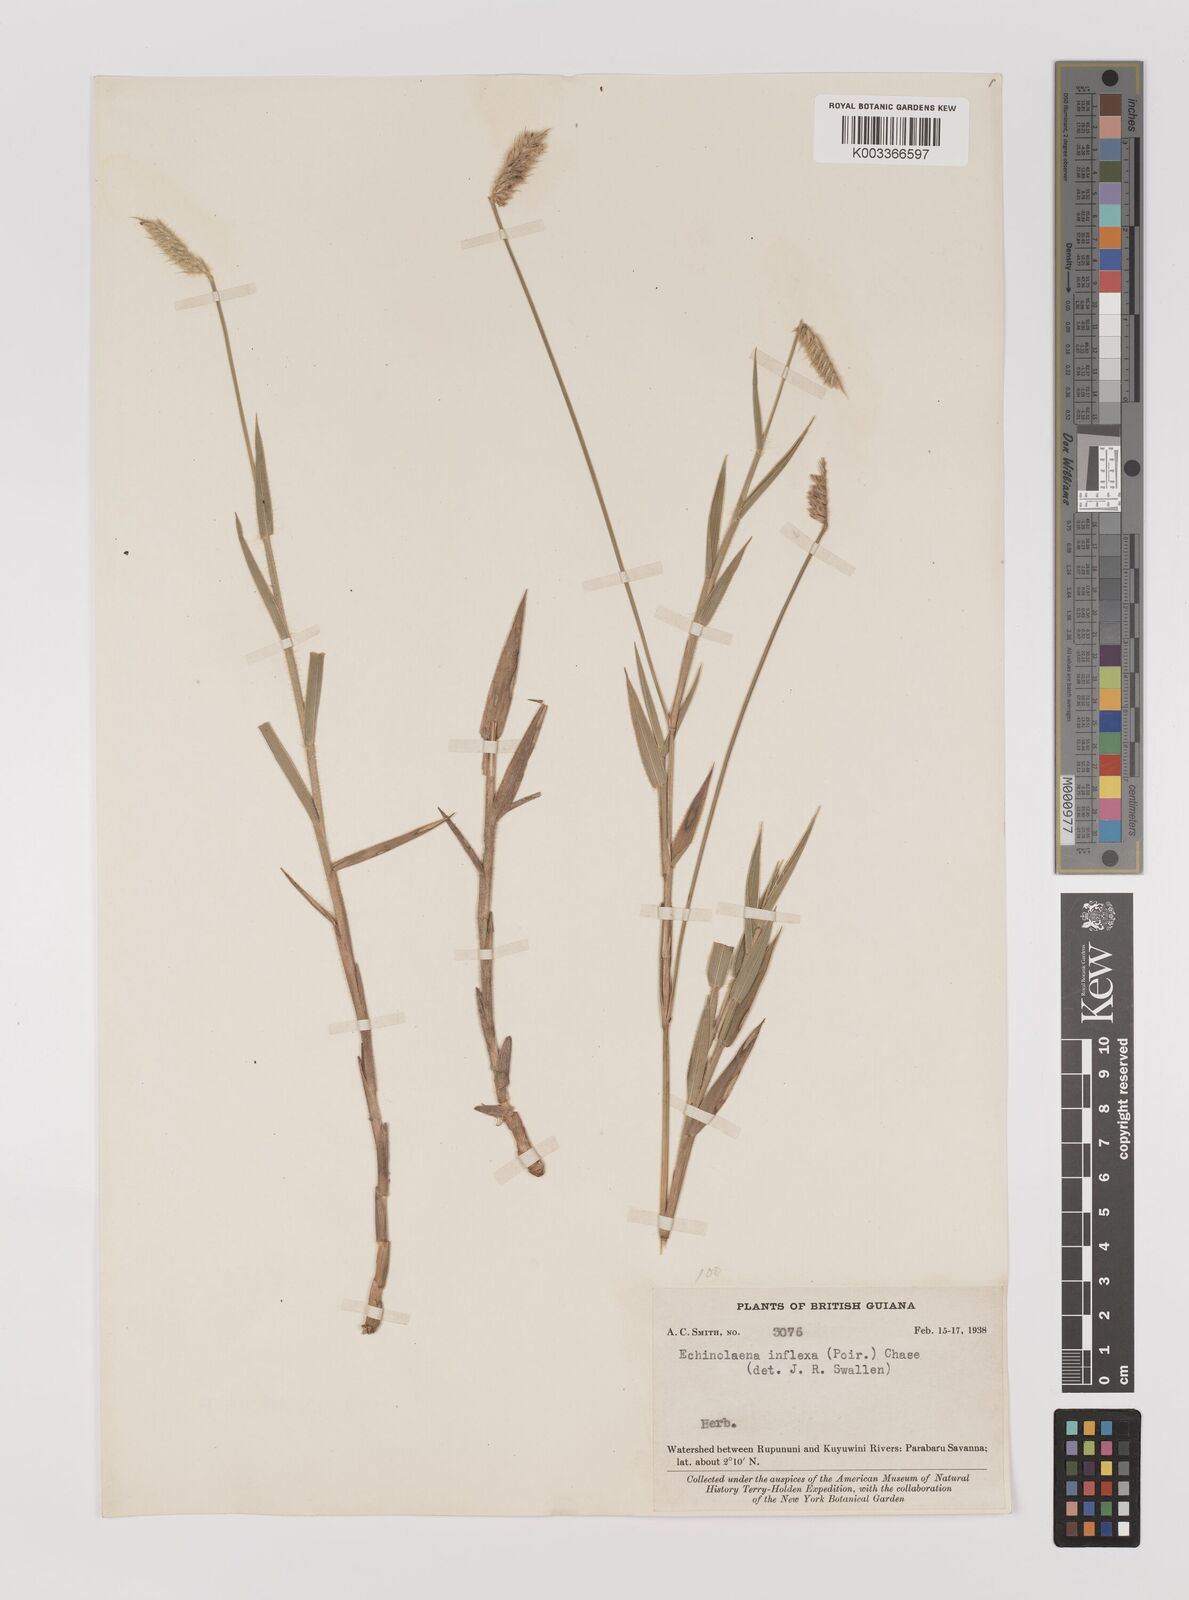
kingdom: Plantae
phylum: Tracheophyta
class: Liliopsida
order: Poales
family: Poaceae
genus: Echinolaena
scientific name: Echinolaena inflexa
